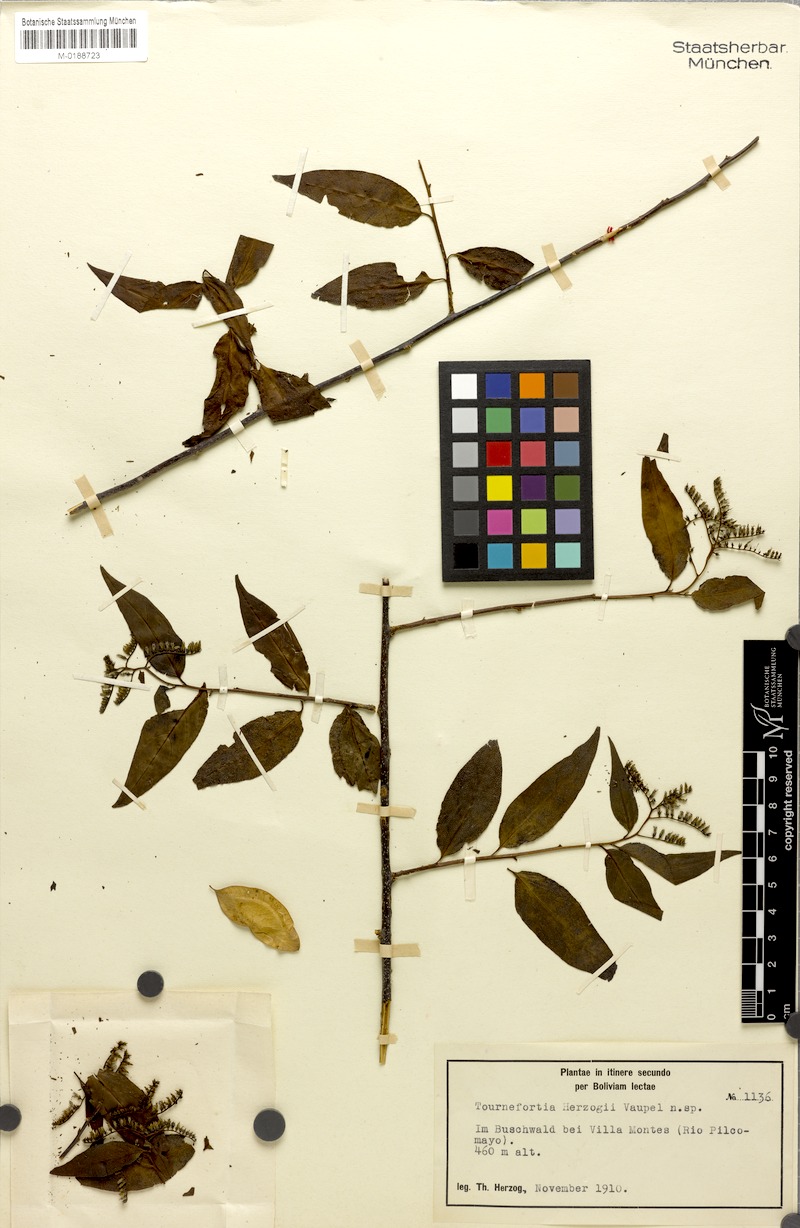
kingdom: Plantae
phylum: Tracheophyta
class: Magnoliopsida
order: Boraginales
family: Heliotropiaceae
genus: Myriopus
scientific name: Myriopus rubicundus
